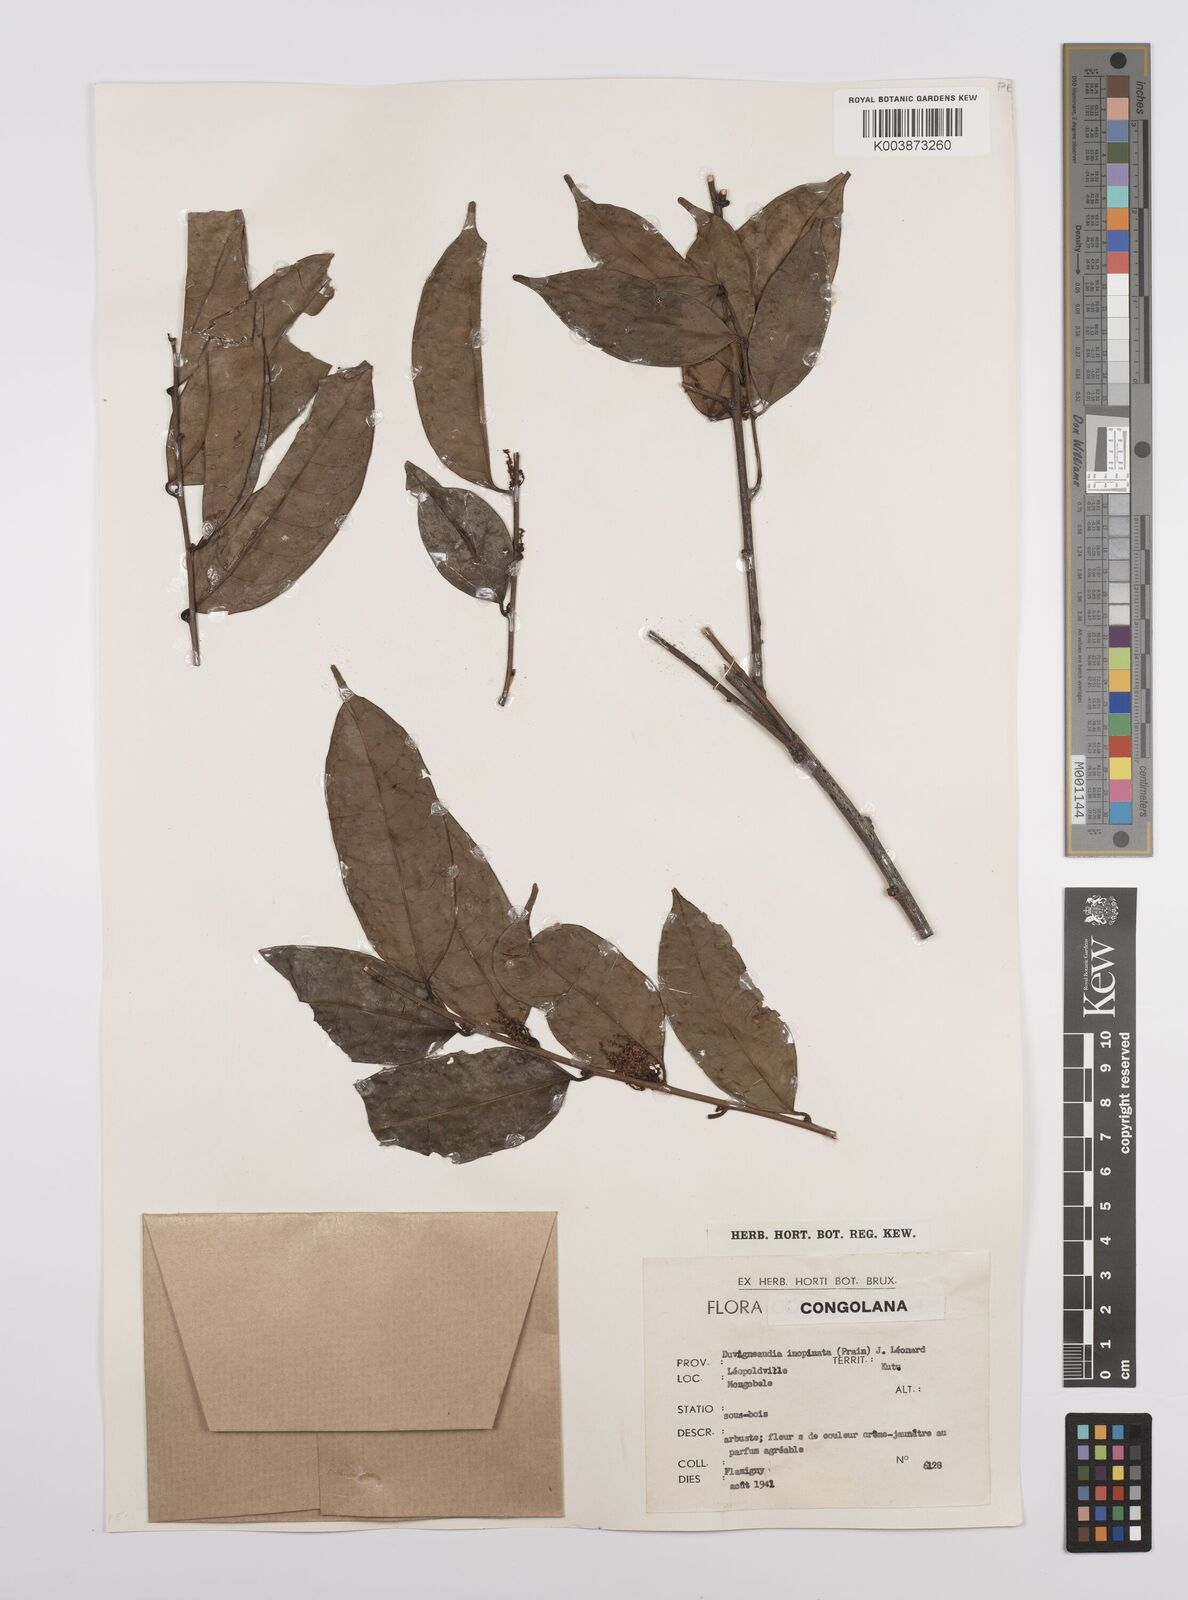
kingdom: Plantae
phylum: Tracheophyta
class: Magnoliopsida
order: Malpighiales
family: Euphorbiaceae
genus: Gymnanthes
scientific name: Gymnanthes
